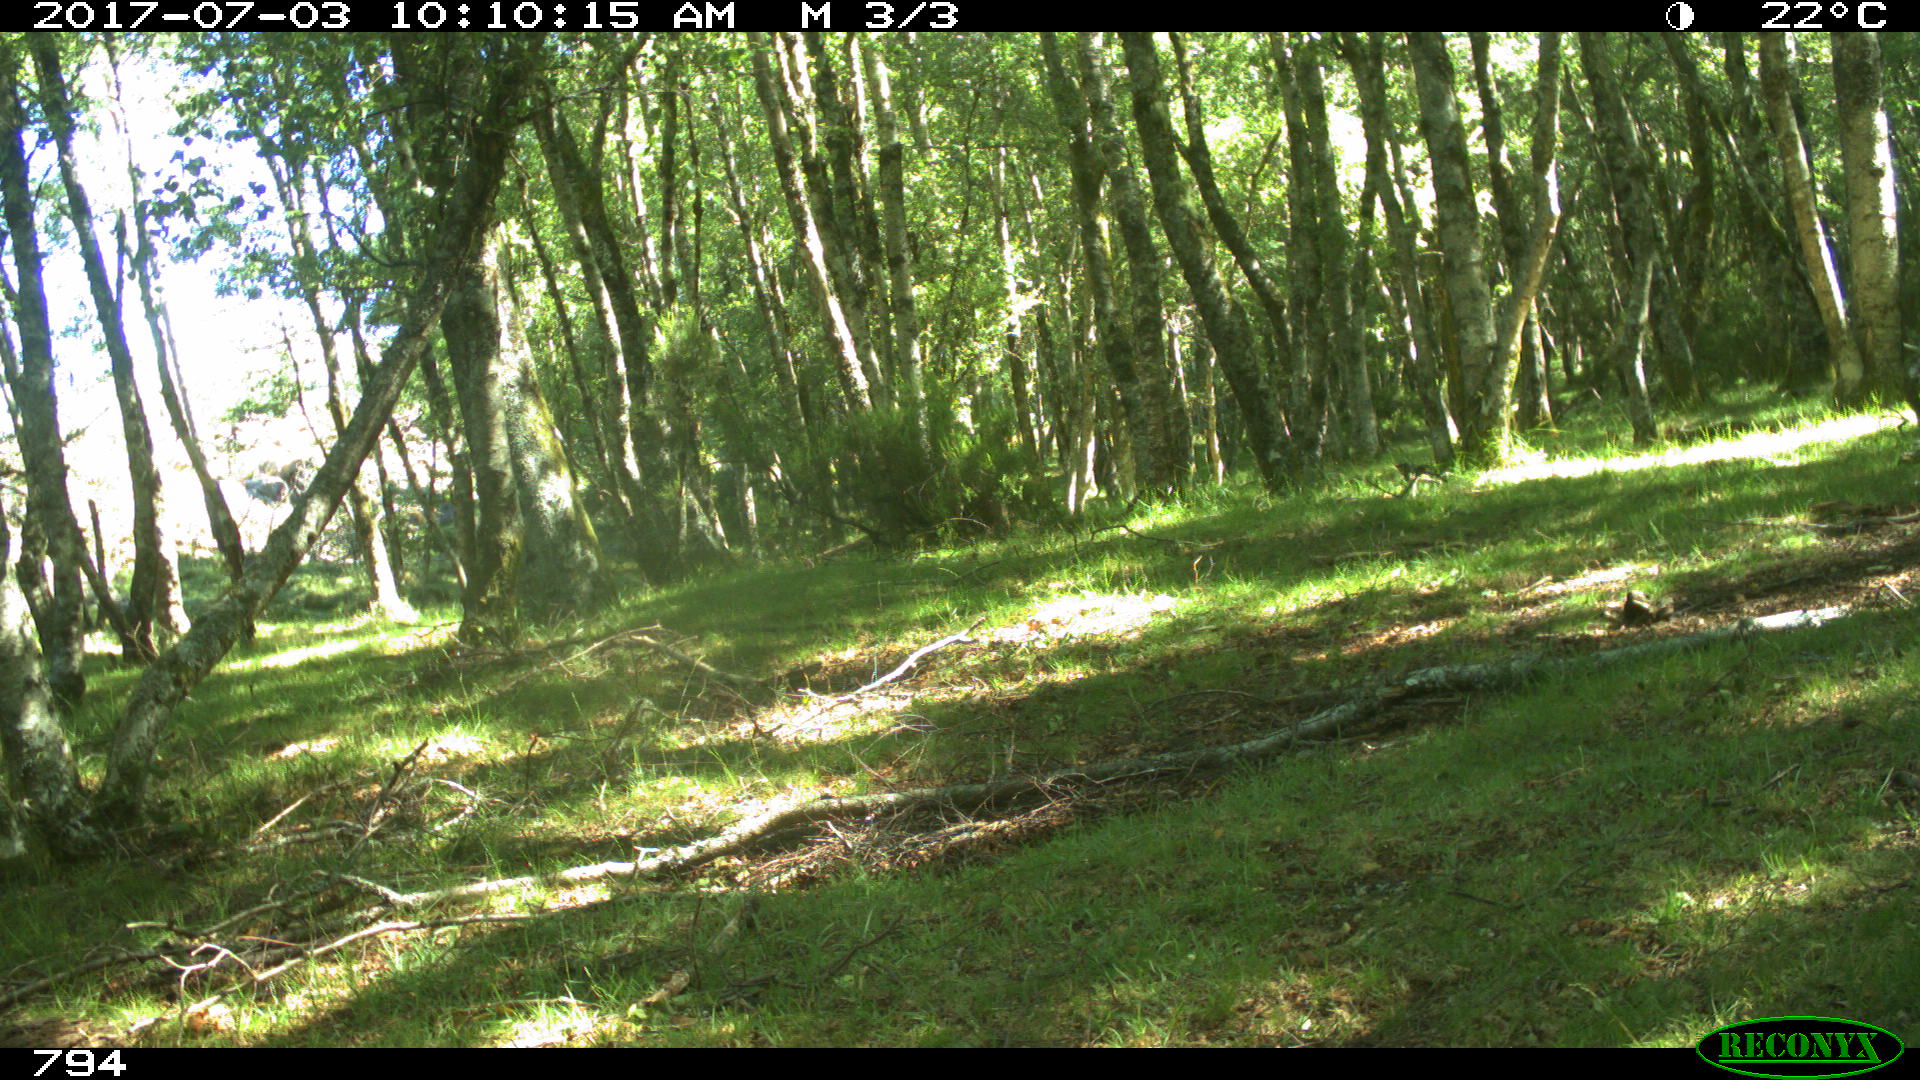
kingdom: Animalia
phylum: Chordata
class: Mammalia
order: Perissodactyla
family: Equidae
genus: Equus
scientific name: Equus caballus
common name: Horse
